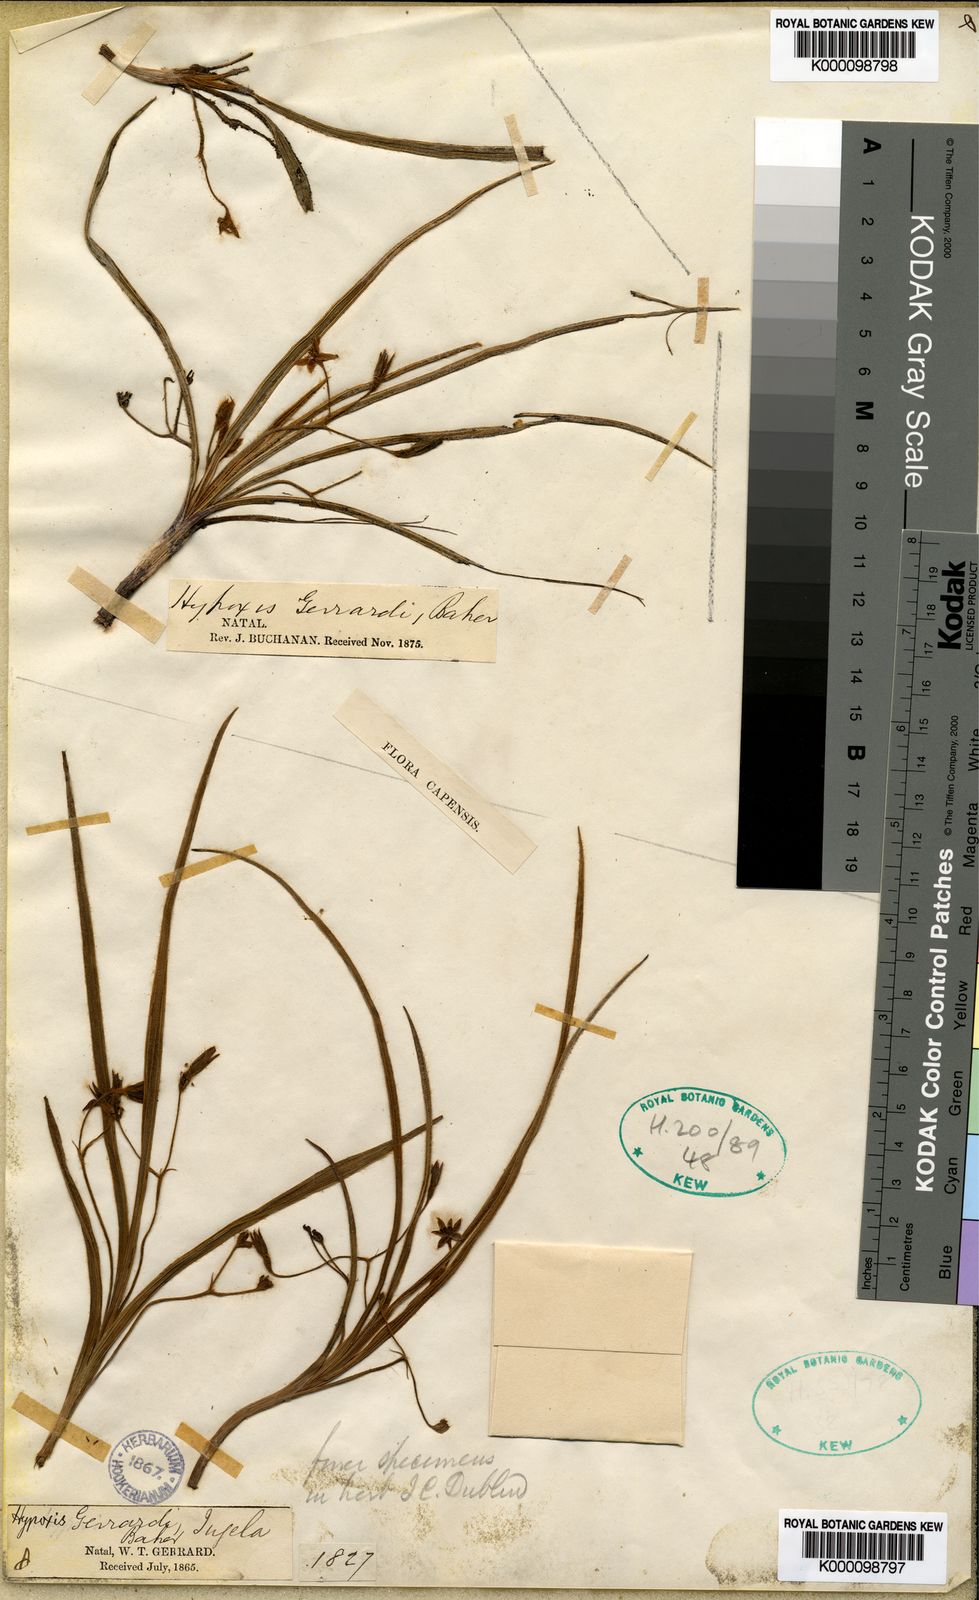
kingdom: Plantae
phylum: Tracheophyta
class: Liliopsida
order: Asparagales
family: Hypoxidaceae
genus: Hypoxis
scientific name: Hypoxis gerrardii
